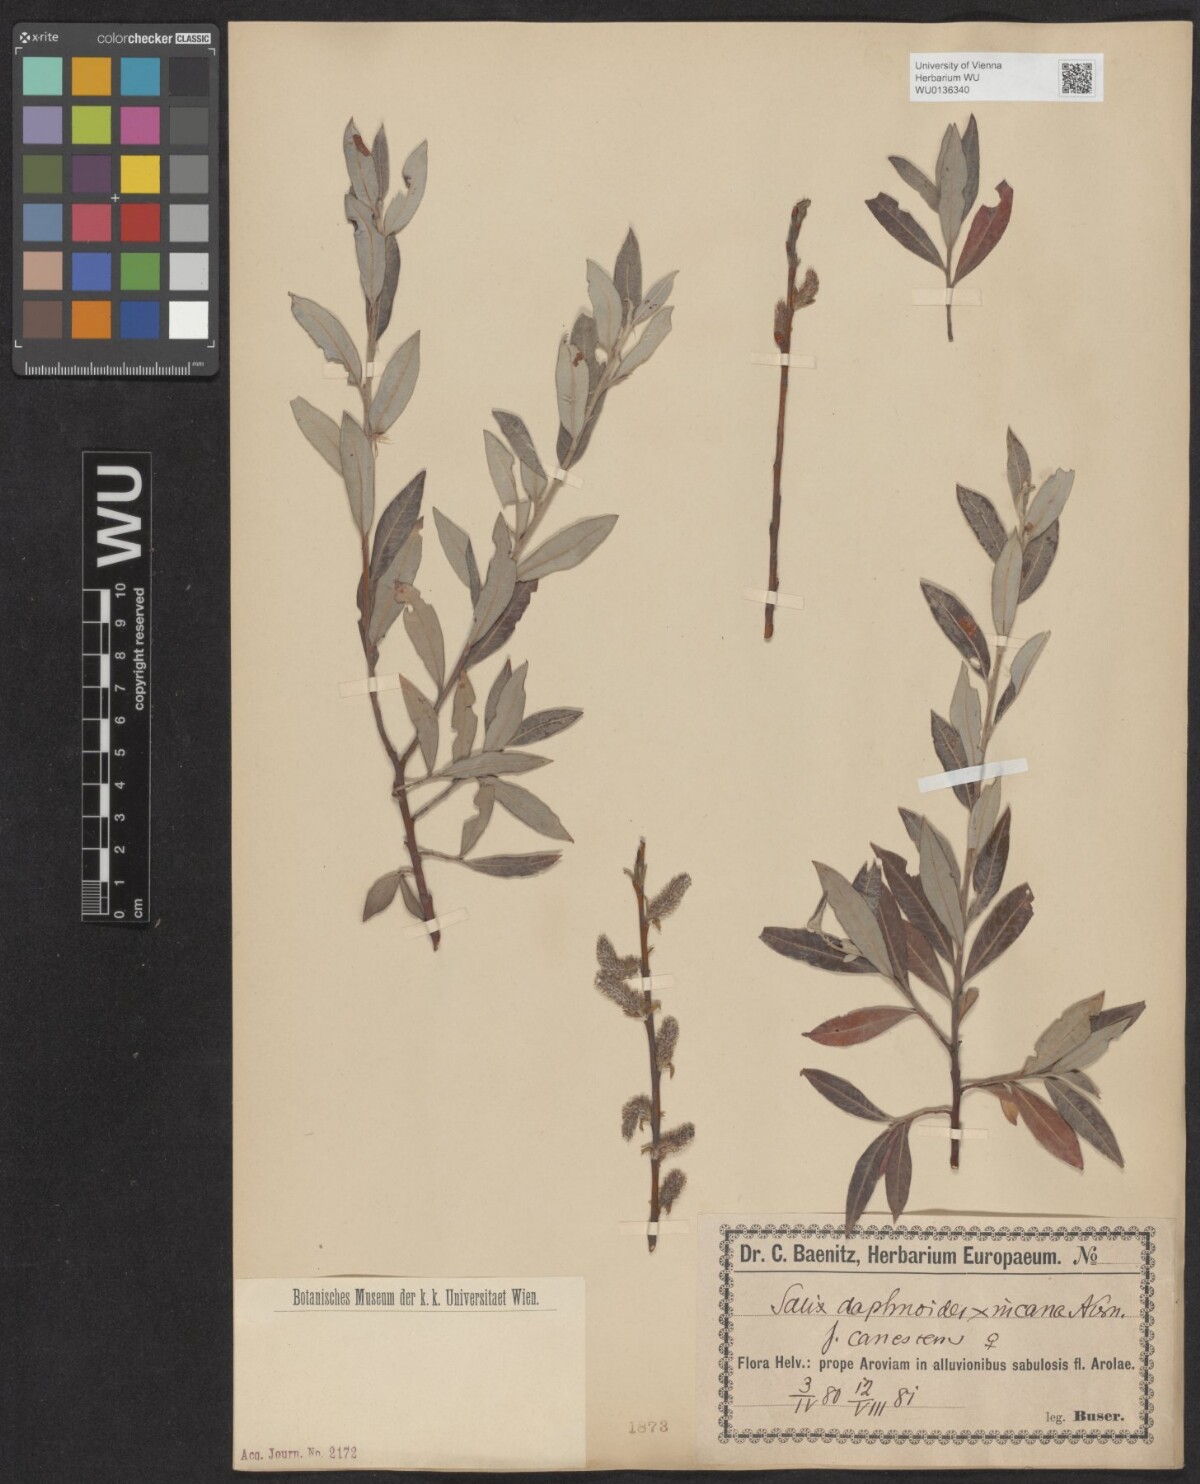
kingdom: Plantae
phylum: Tracheophyta
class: Magnoliopsida
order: Malpighiales
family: Salicaceae
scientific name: Salicaceae
